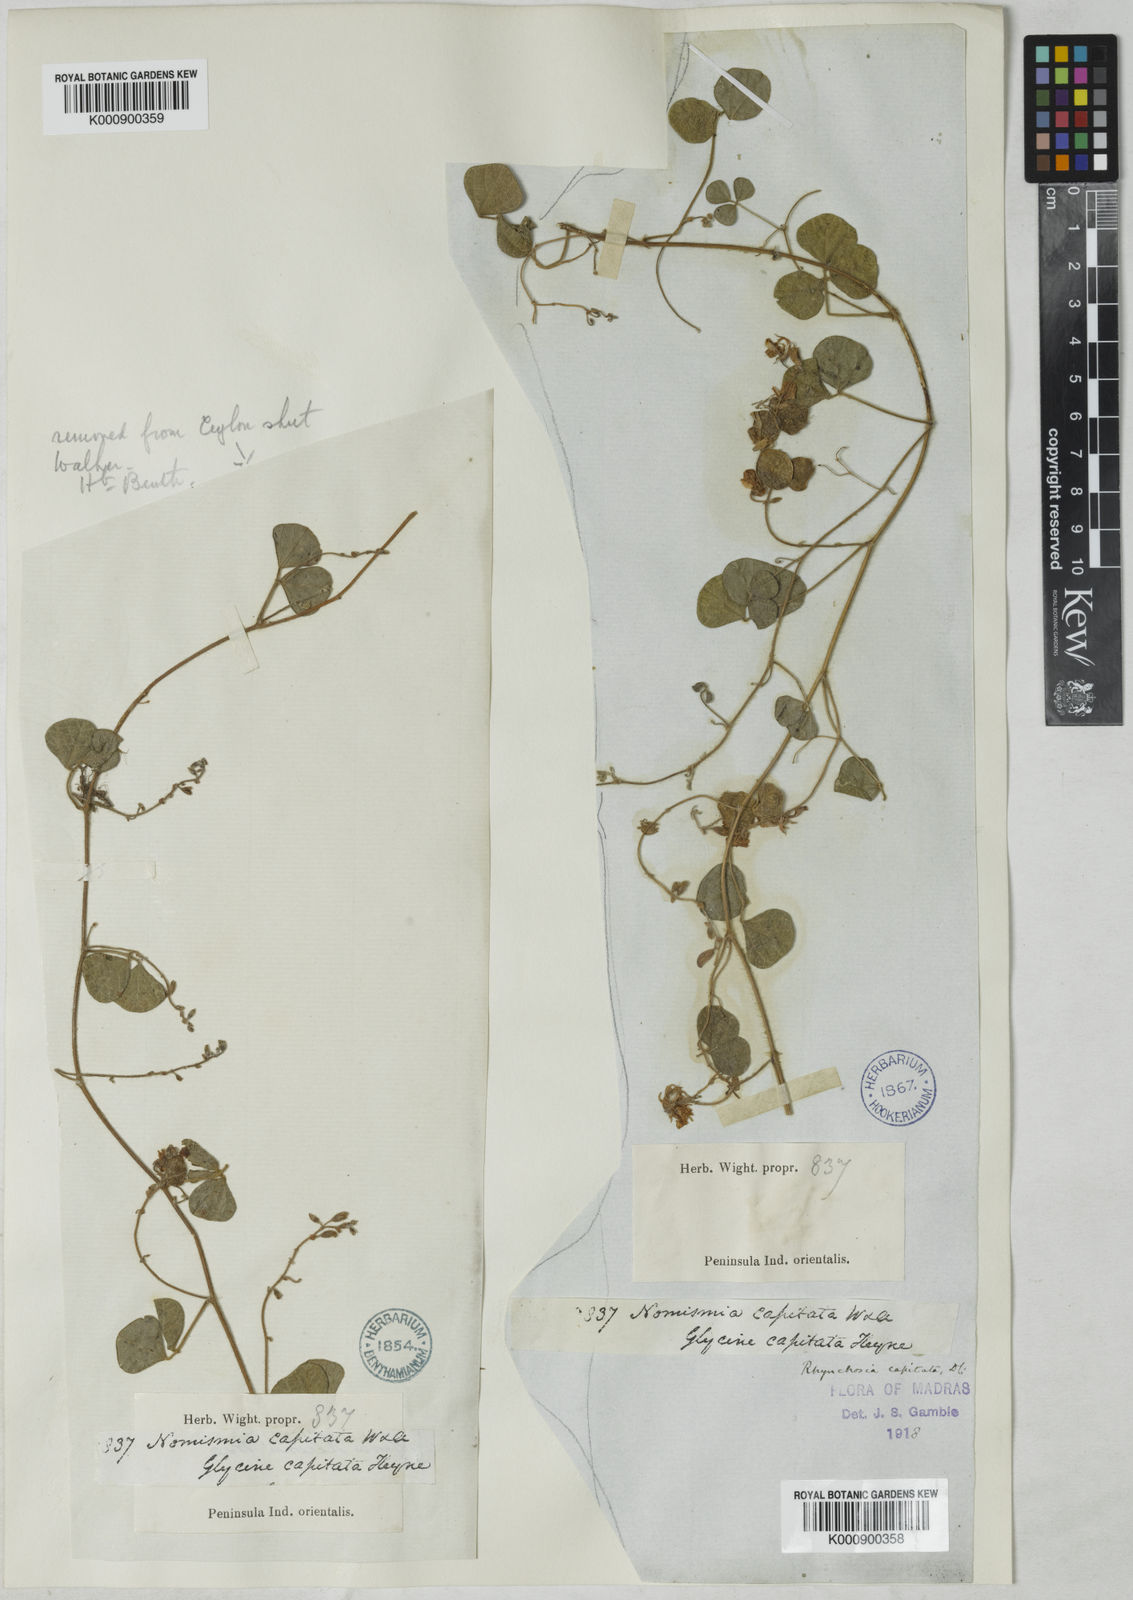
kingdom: Plantae
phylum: Tracheophyta
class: Magnoliopsida
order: Fabales
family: Fabaceae
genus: Rhynchosia
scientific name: Rhynchosia capitata
